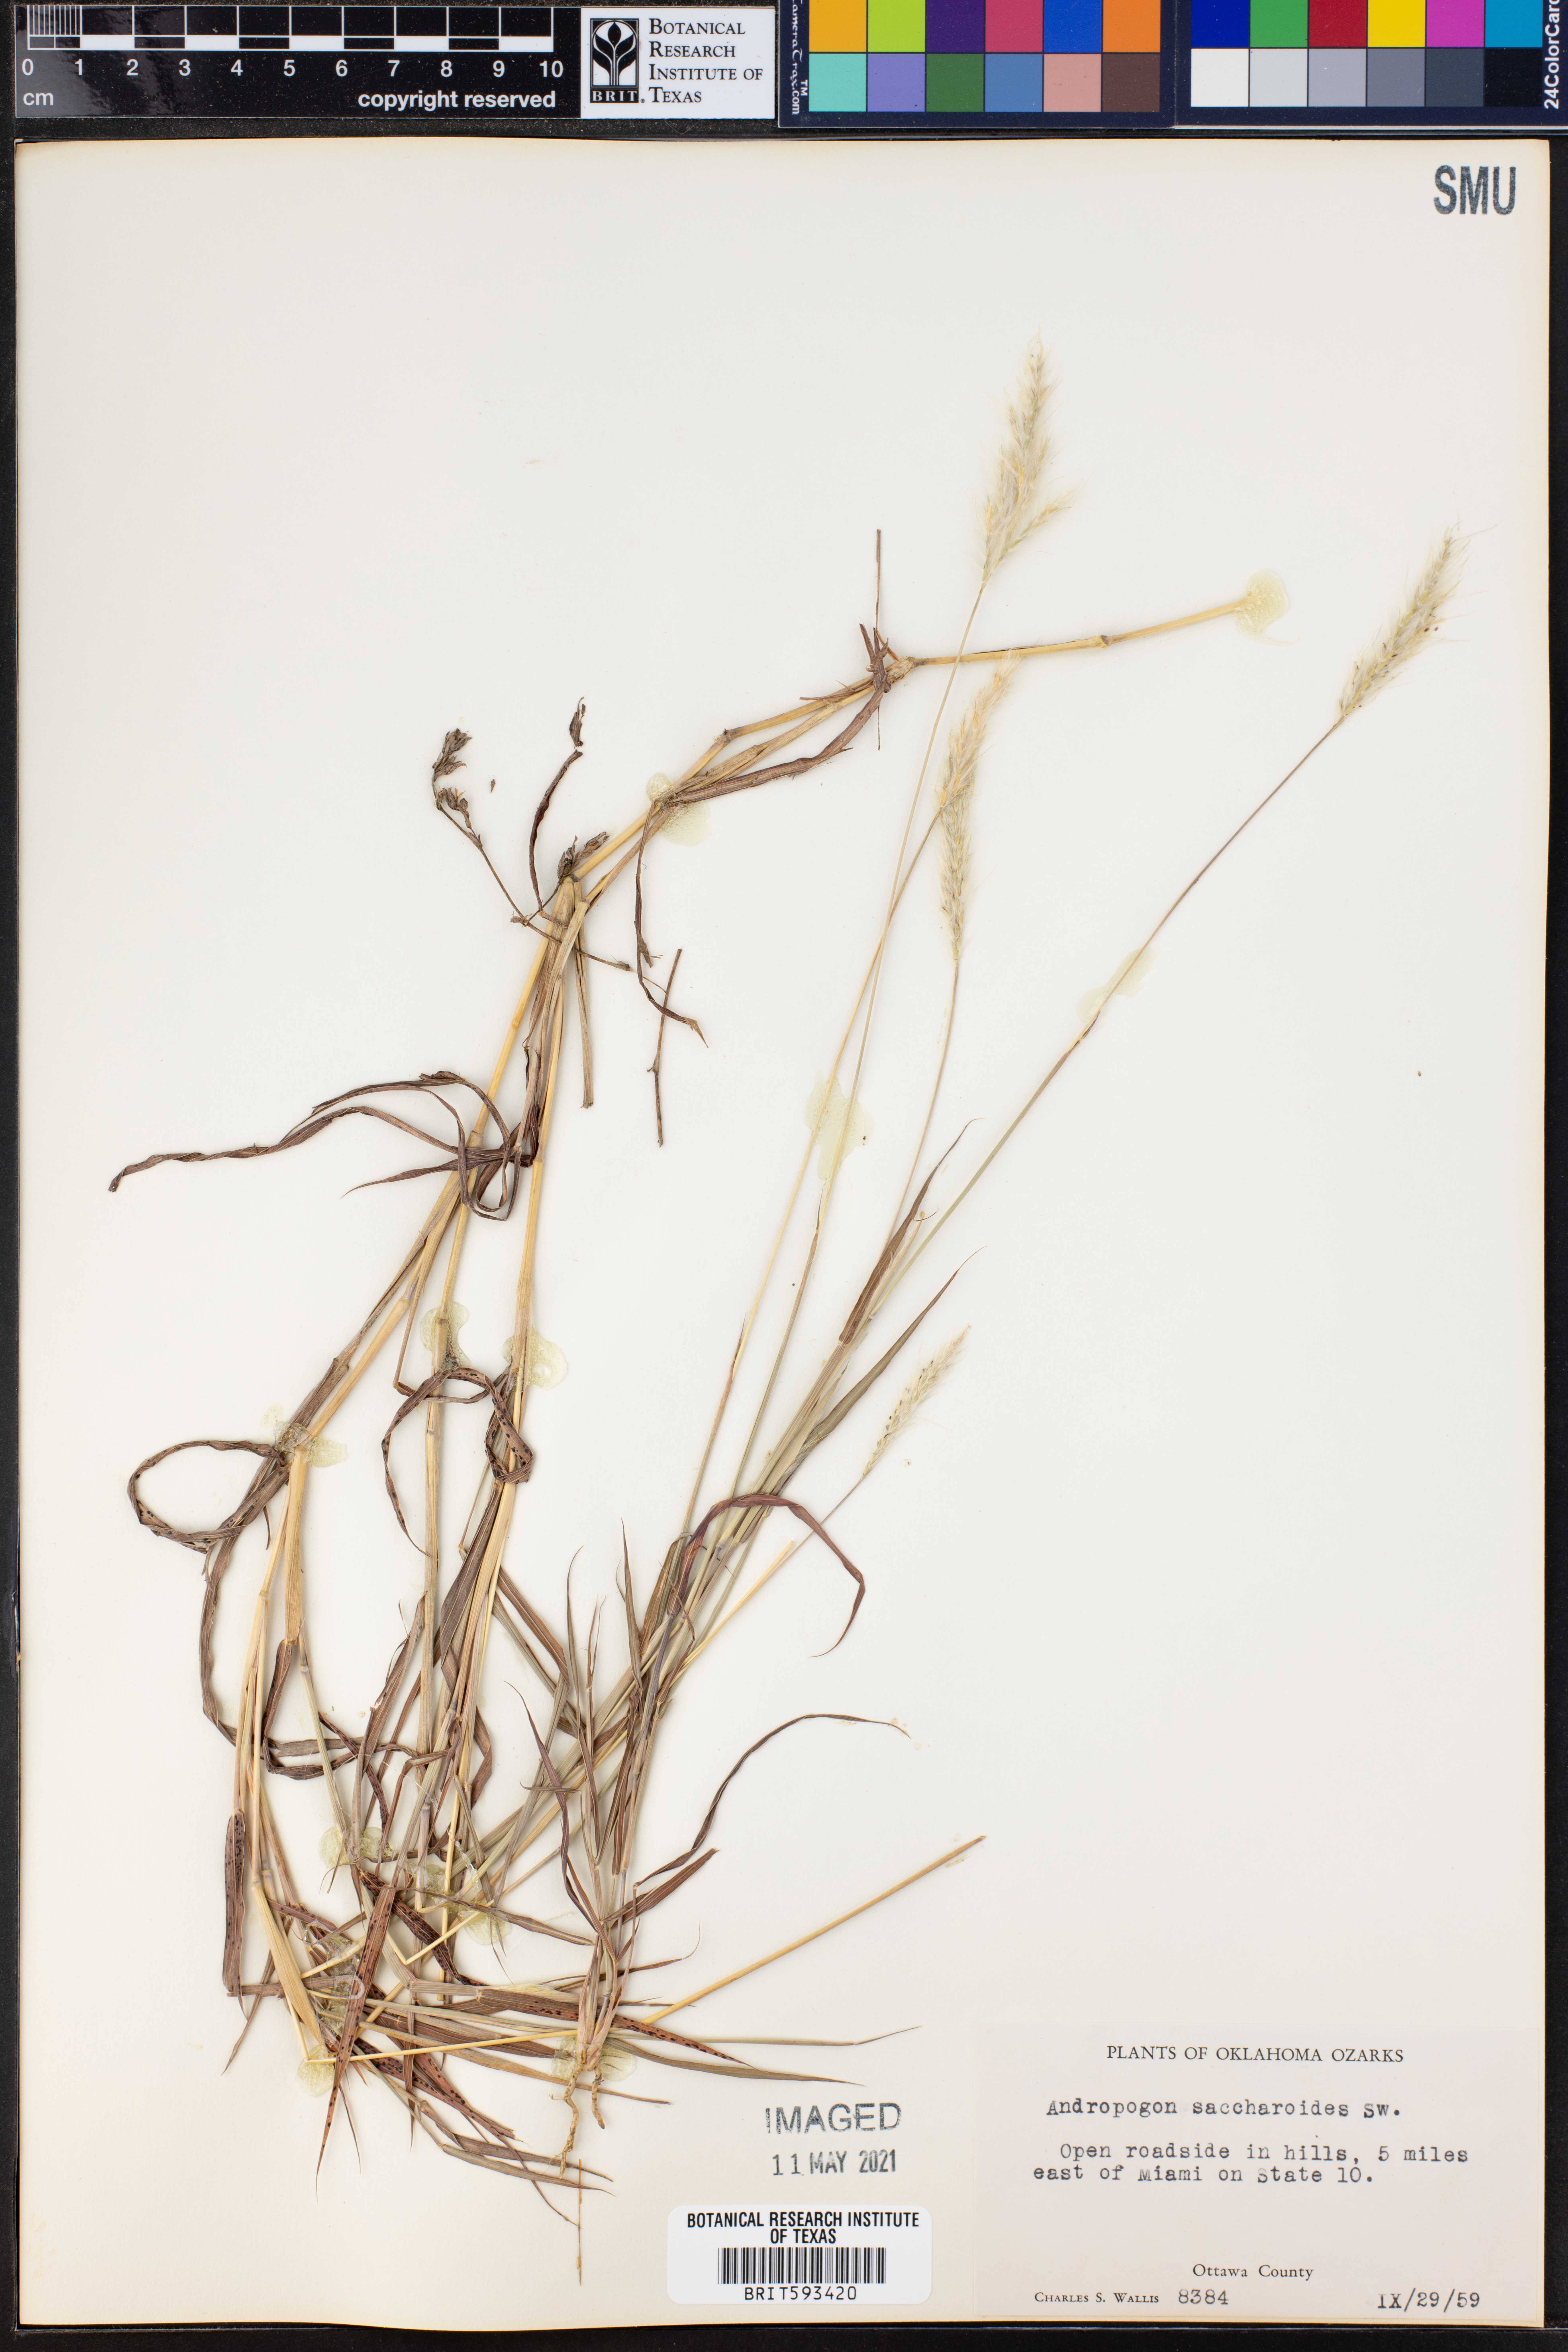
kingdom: Plantae
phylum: Tracheophyta
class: Liliopsida
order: Poales
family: Poaceae
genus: Bothriochloa
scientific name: Bothriochloa saccharoides
